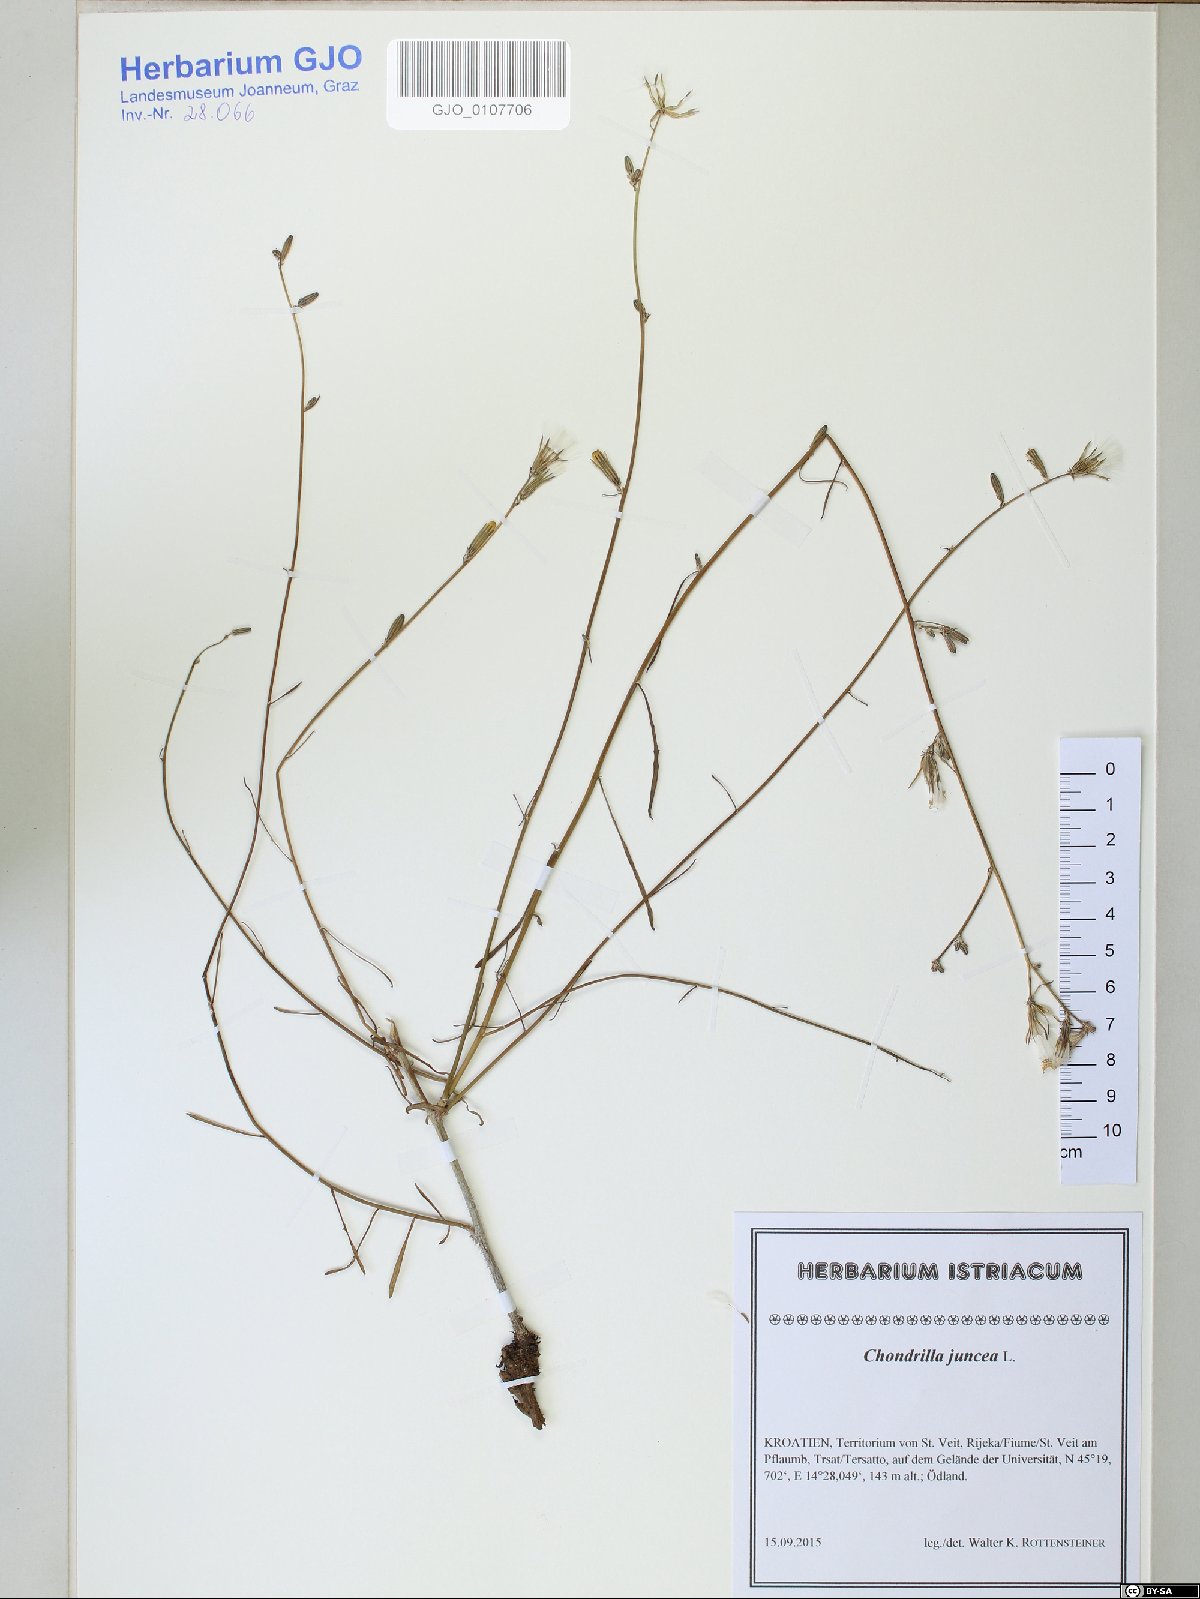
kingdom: Plantae
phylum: Tracheophyta
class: Magnoliopsida
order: Asterales
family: Asteraceae
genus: Chondrilla
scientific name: Chondrilla juncea
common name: Skeleton weed
